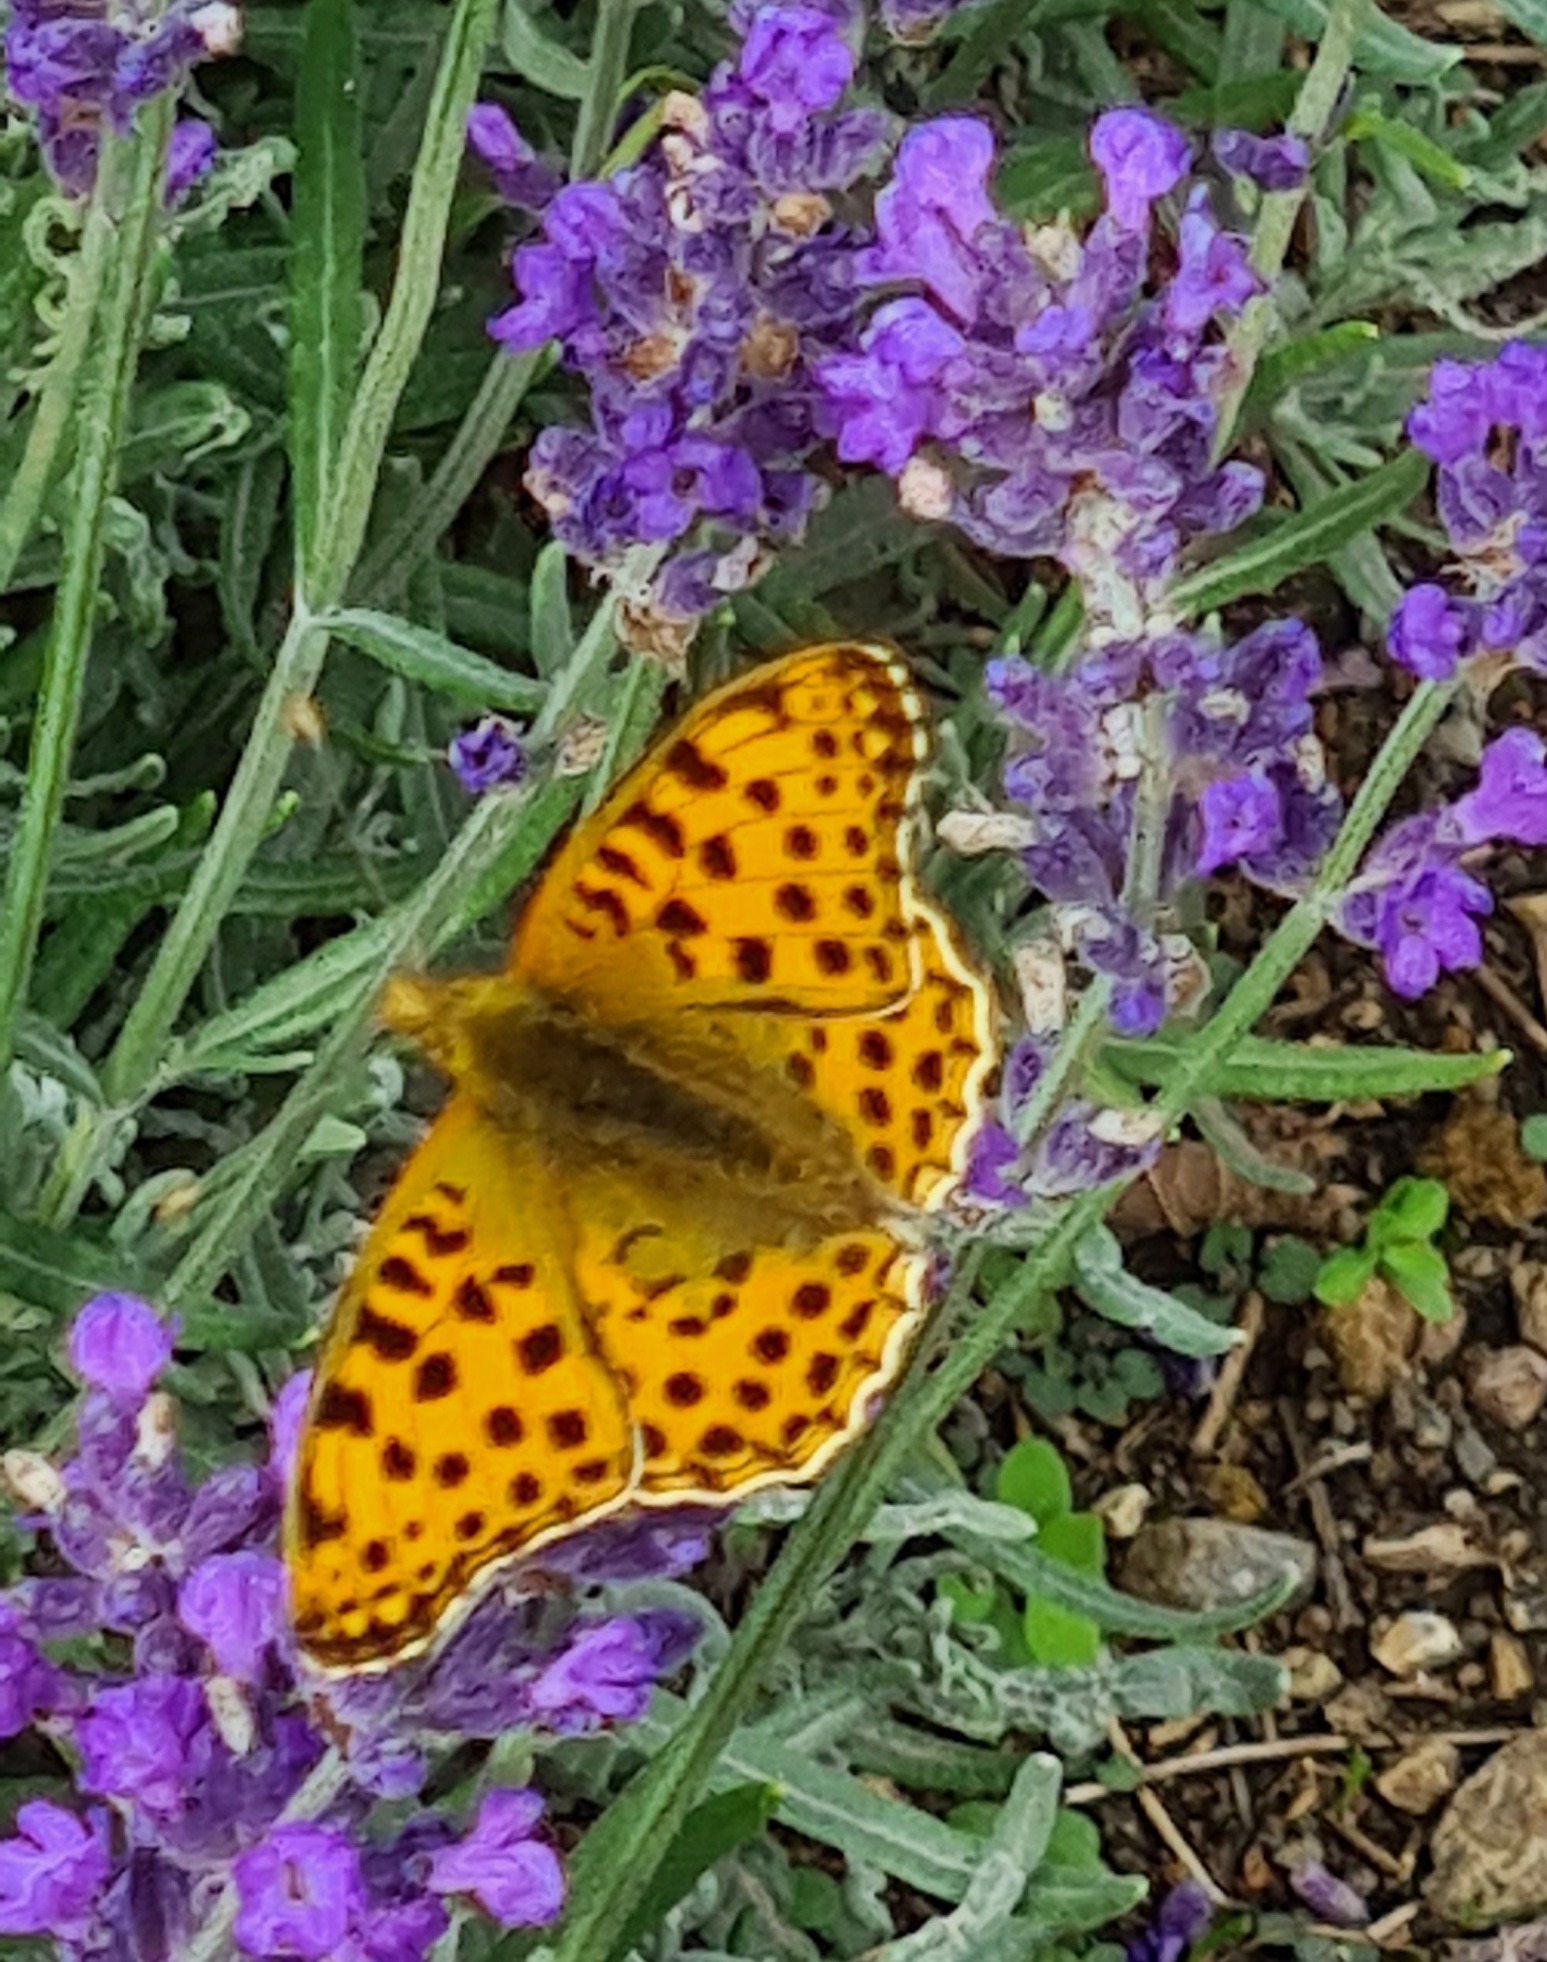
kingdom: Animalia
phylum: Arthropoda
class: Insecta
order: Lepidoptera
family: Nymphalidae
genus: Issoria
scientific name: Issoria lathonia
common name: Storplettet perlemorsommerfugl
